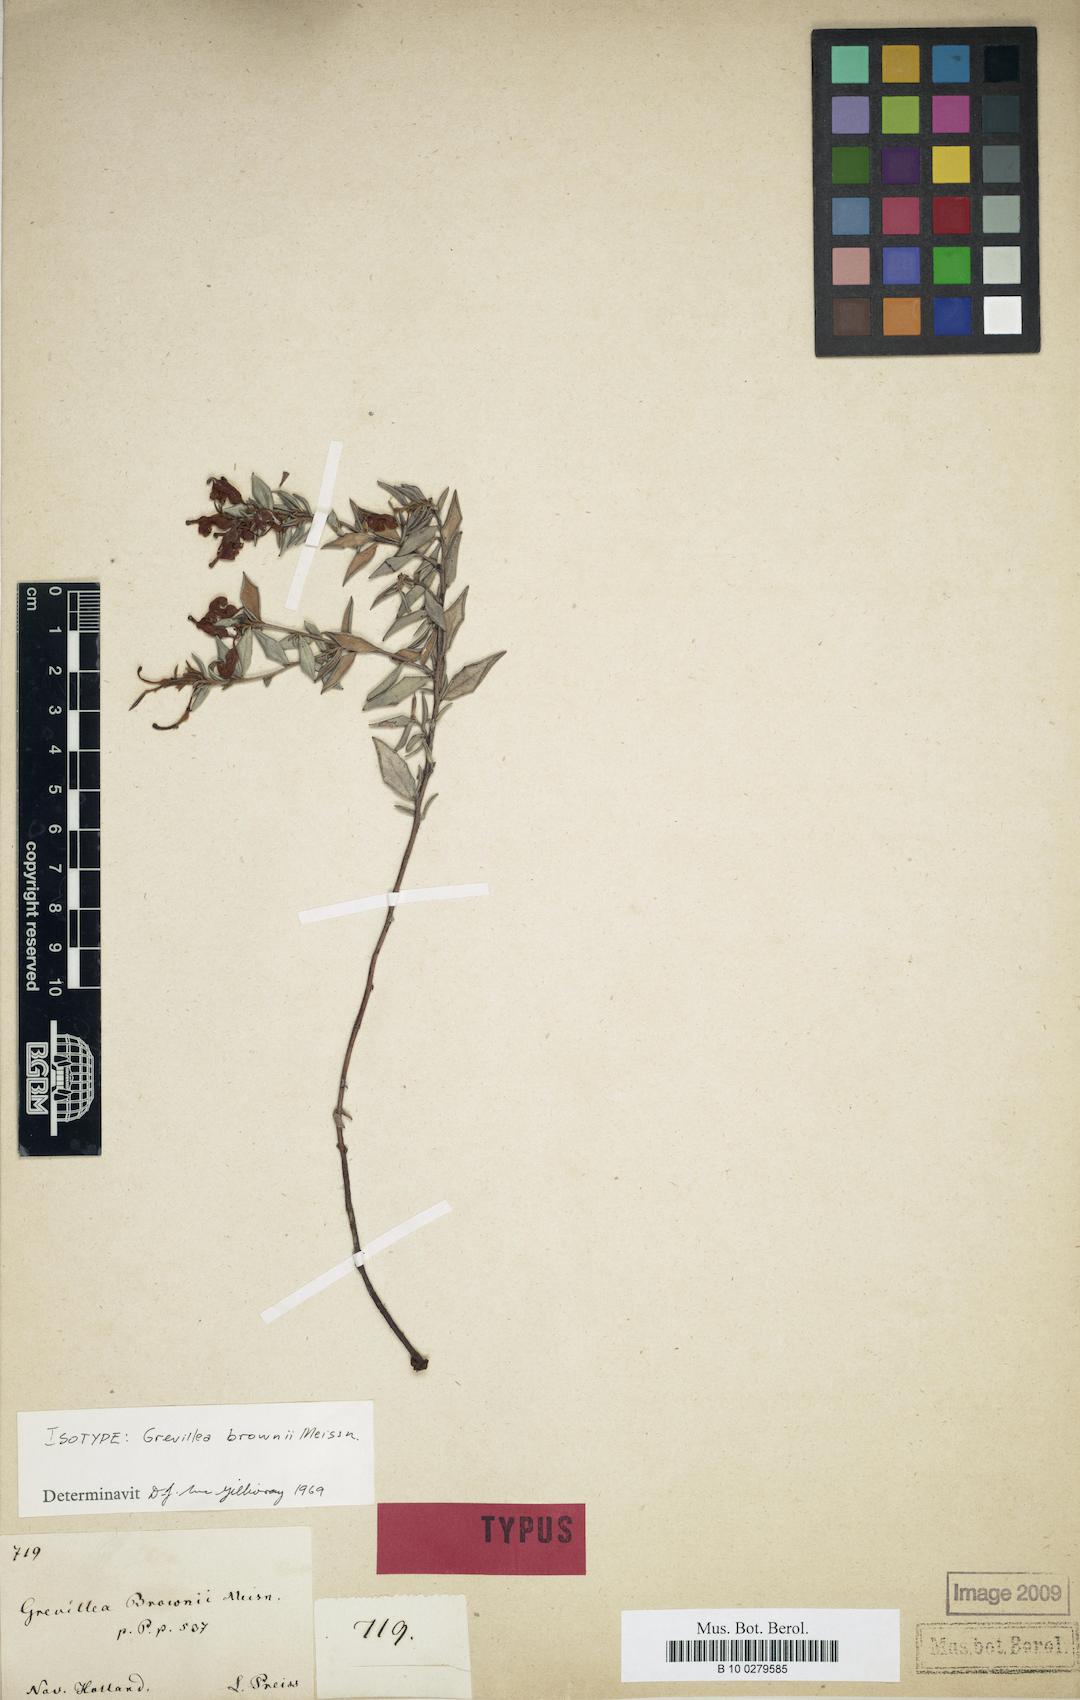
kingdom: Plantae
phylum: Tracheophyta
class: Magnoliopsida
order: Proteales
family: Proteaceae
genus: Grevillea
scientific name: Grevillea depauperata
